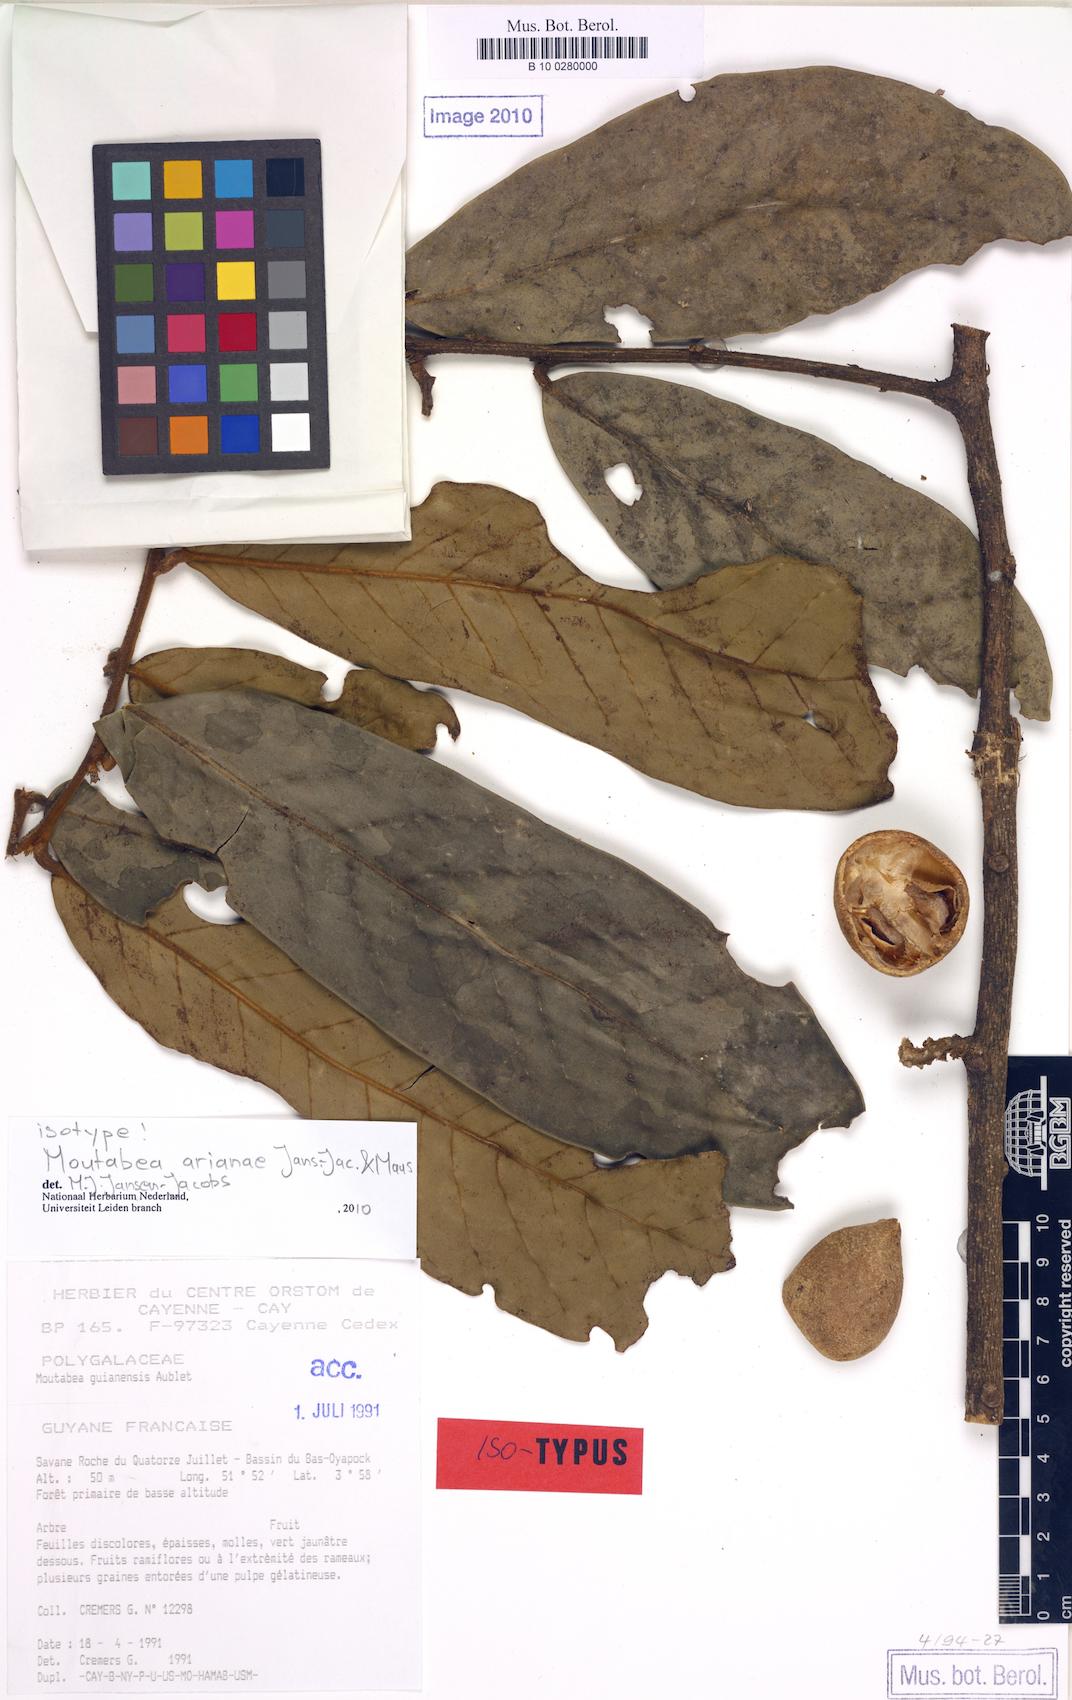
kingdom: Plantae
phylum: Tracheophyta
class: Magnoliopsida
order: Fabales
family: Polygalaceae
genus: Moutabea
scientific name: Moutabea guianensis
